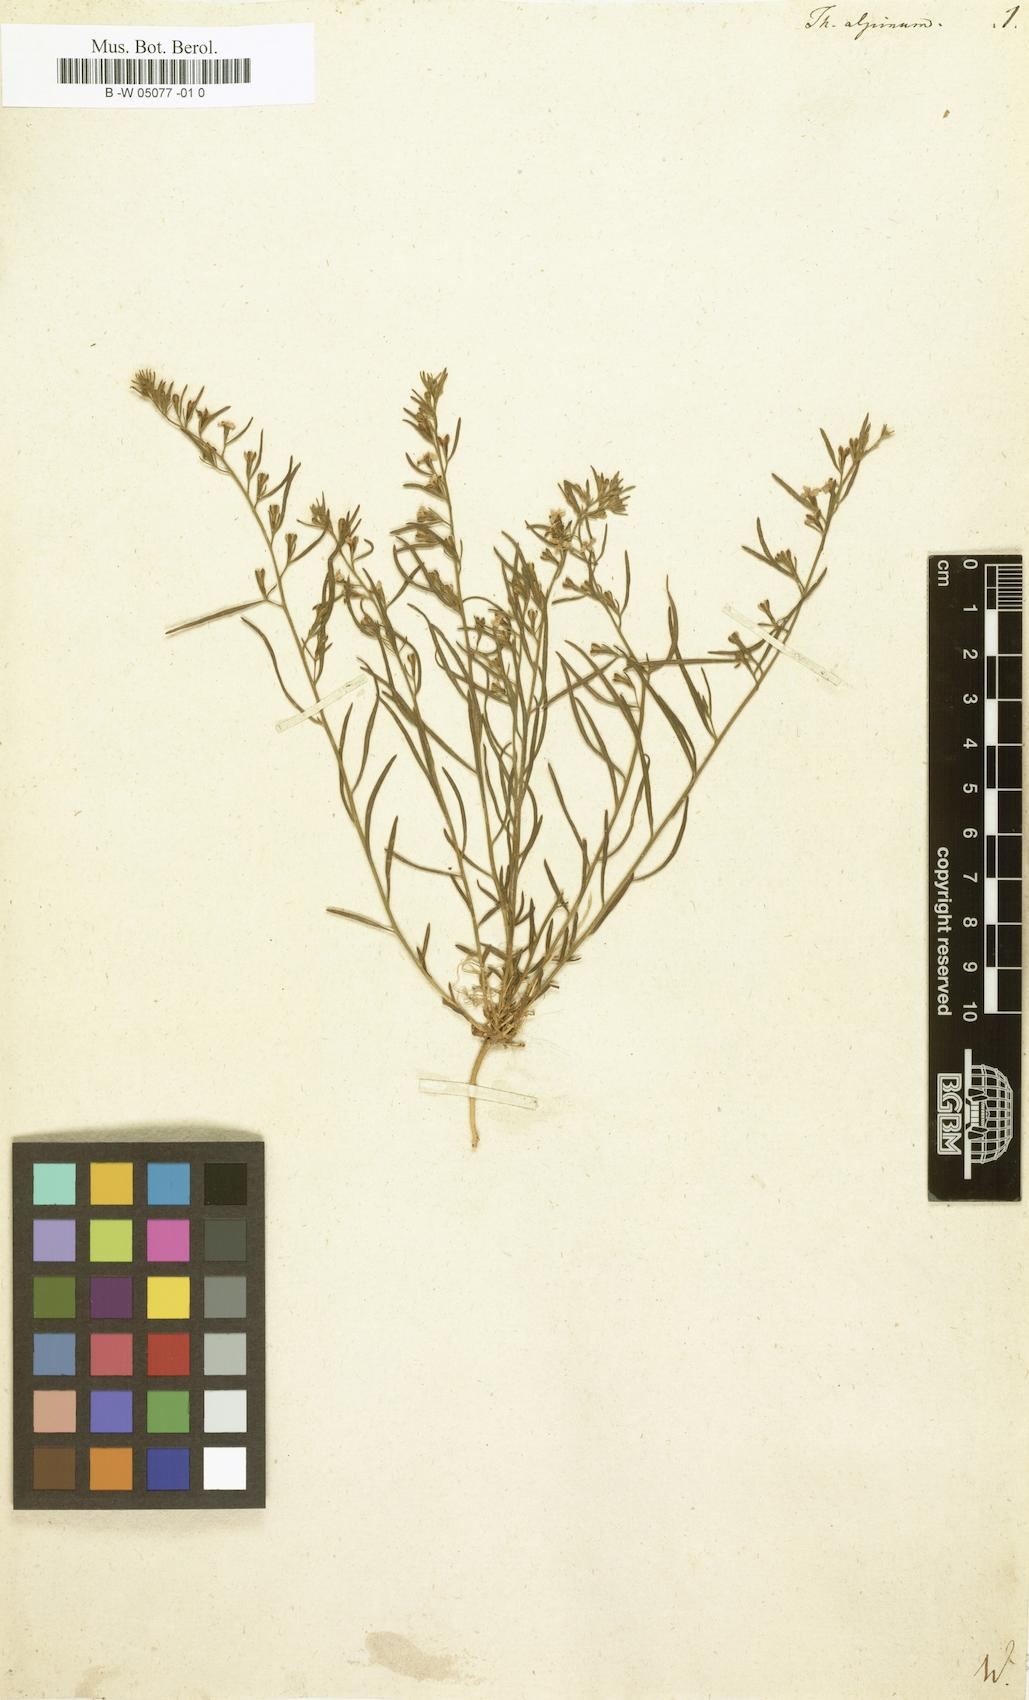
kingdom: Plantae
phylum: Tracheophyta
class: Magnoliopsida
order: Santalales
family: Thesiaceae
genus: Thesium
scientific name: Thesium alpinum
